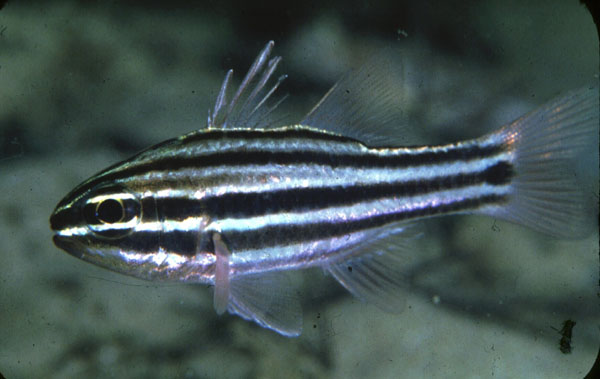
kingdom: Animalia
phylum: Chordata
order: Perciformes
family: Apogonidae
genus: Ostorhinchus
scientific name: Ostorhinchus cookii
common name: Cook's cardinalfish
